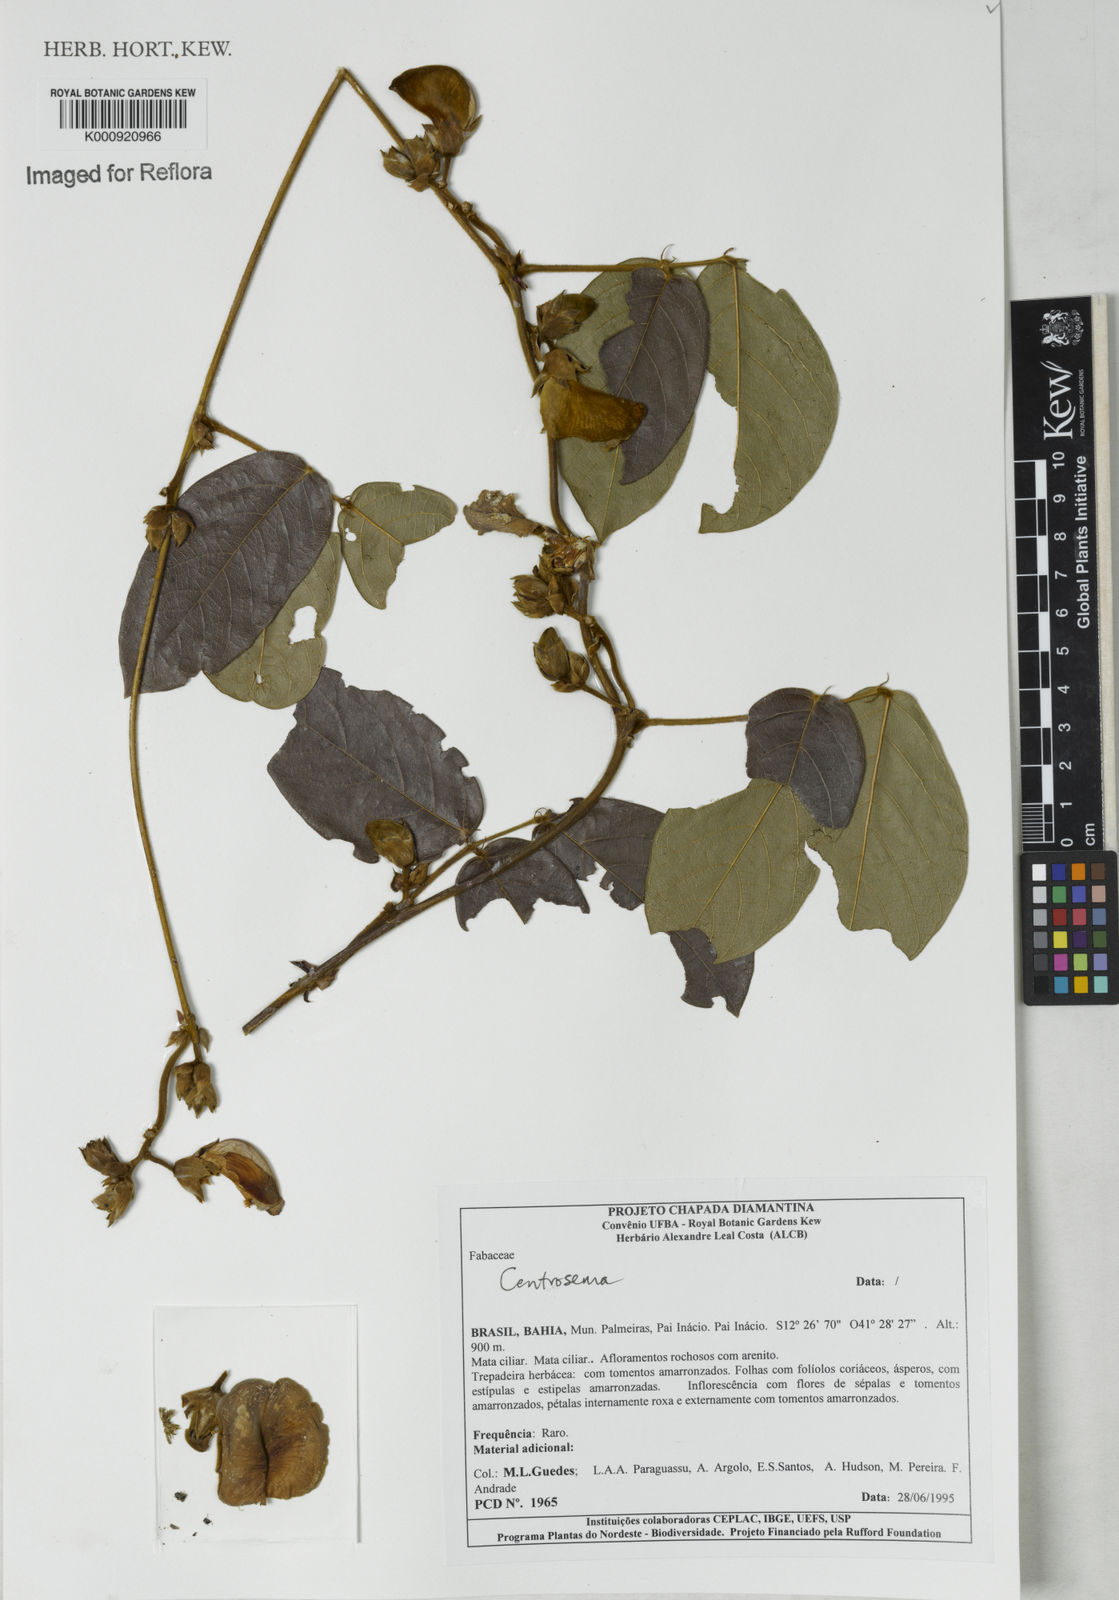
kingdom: Plantae
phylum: Tracheophyta
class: Magnoliopsida
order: Fabales
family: Fabaceae
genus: Centrosema
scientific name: Centrosema
